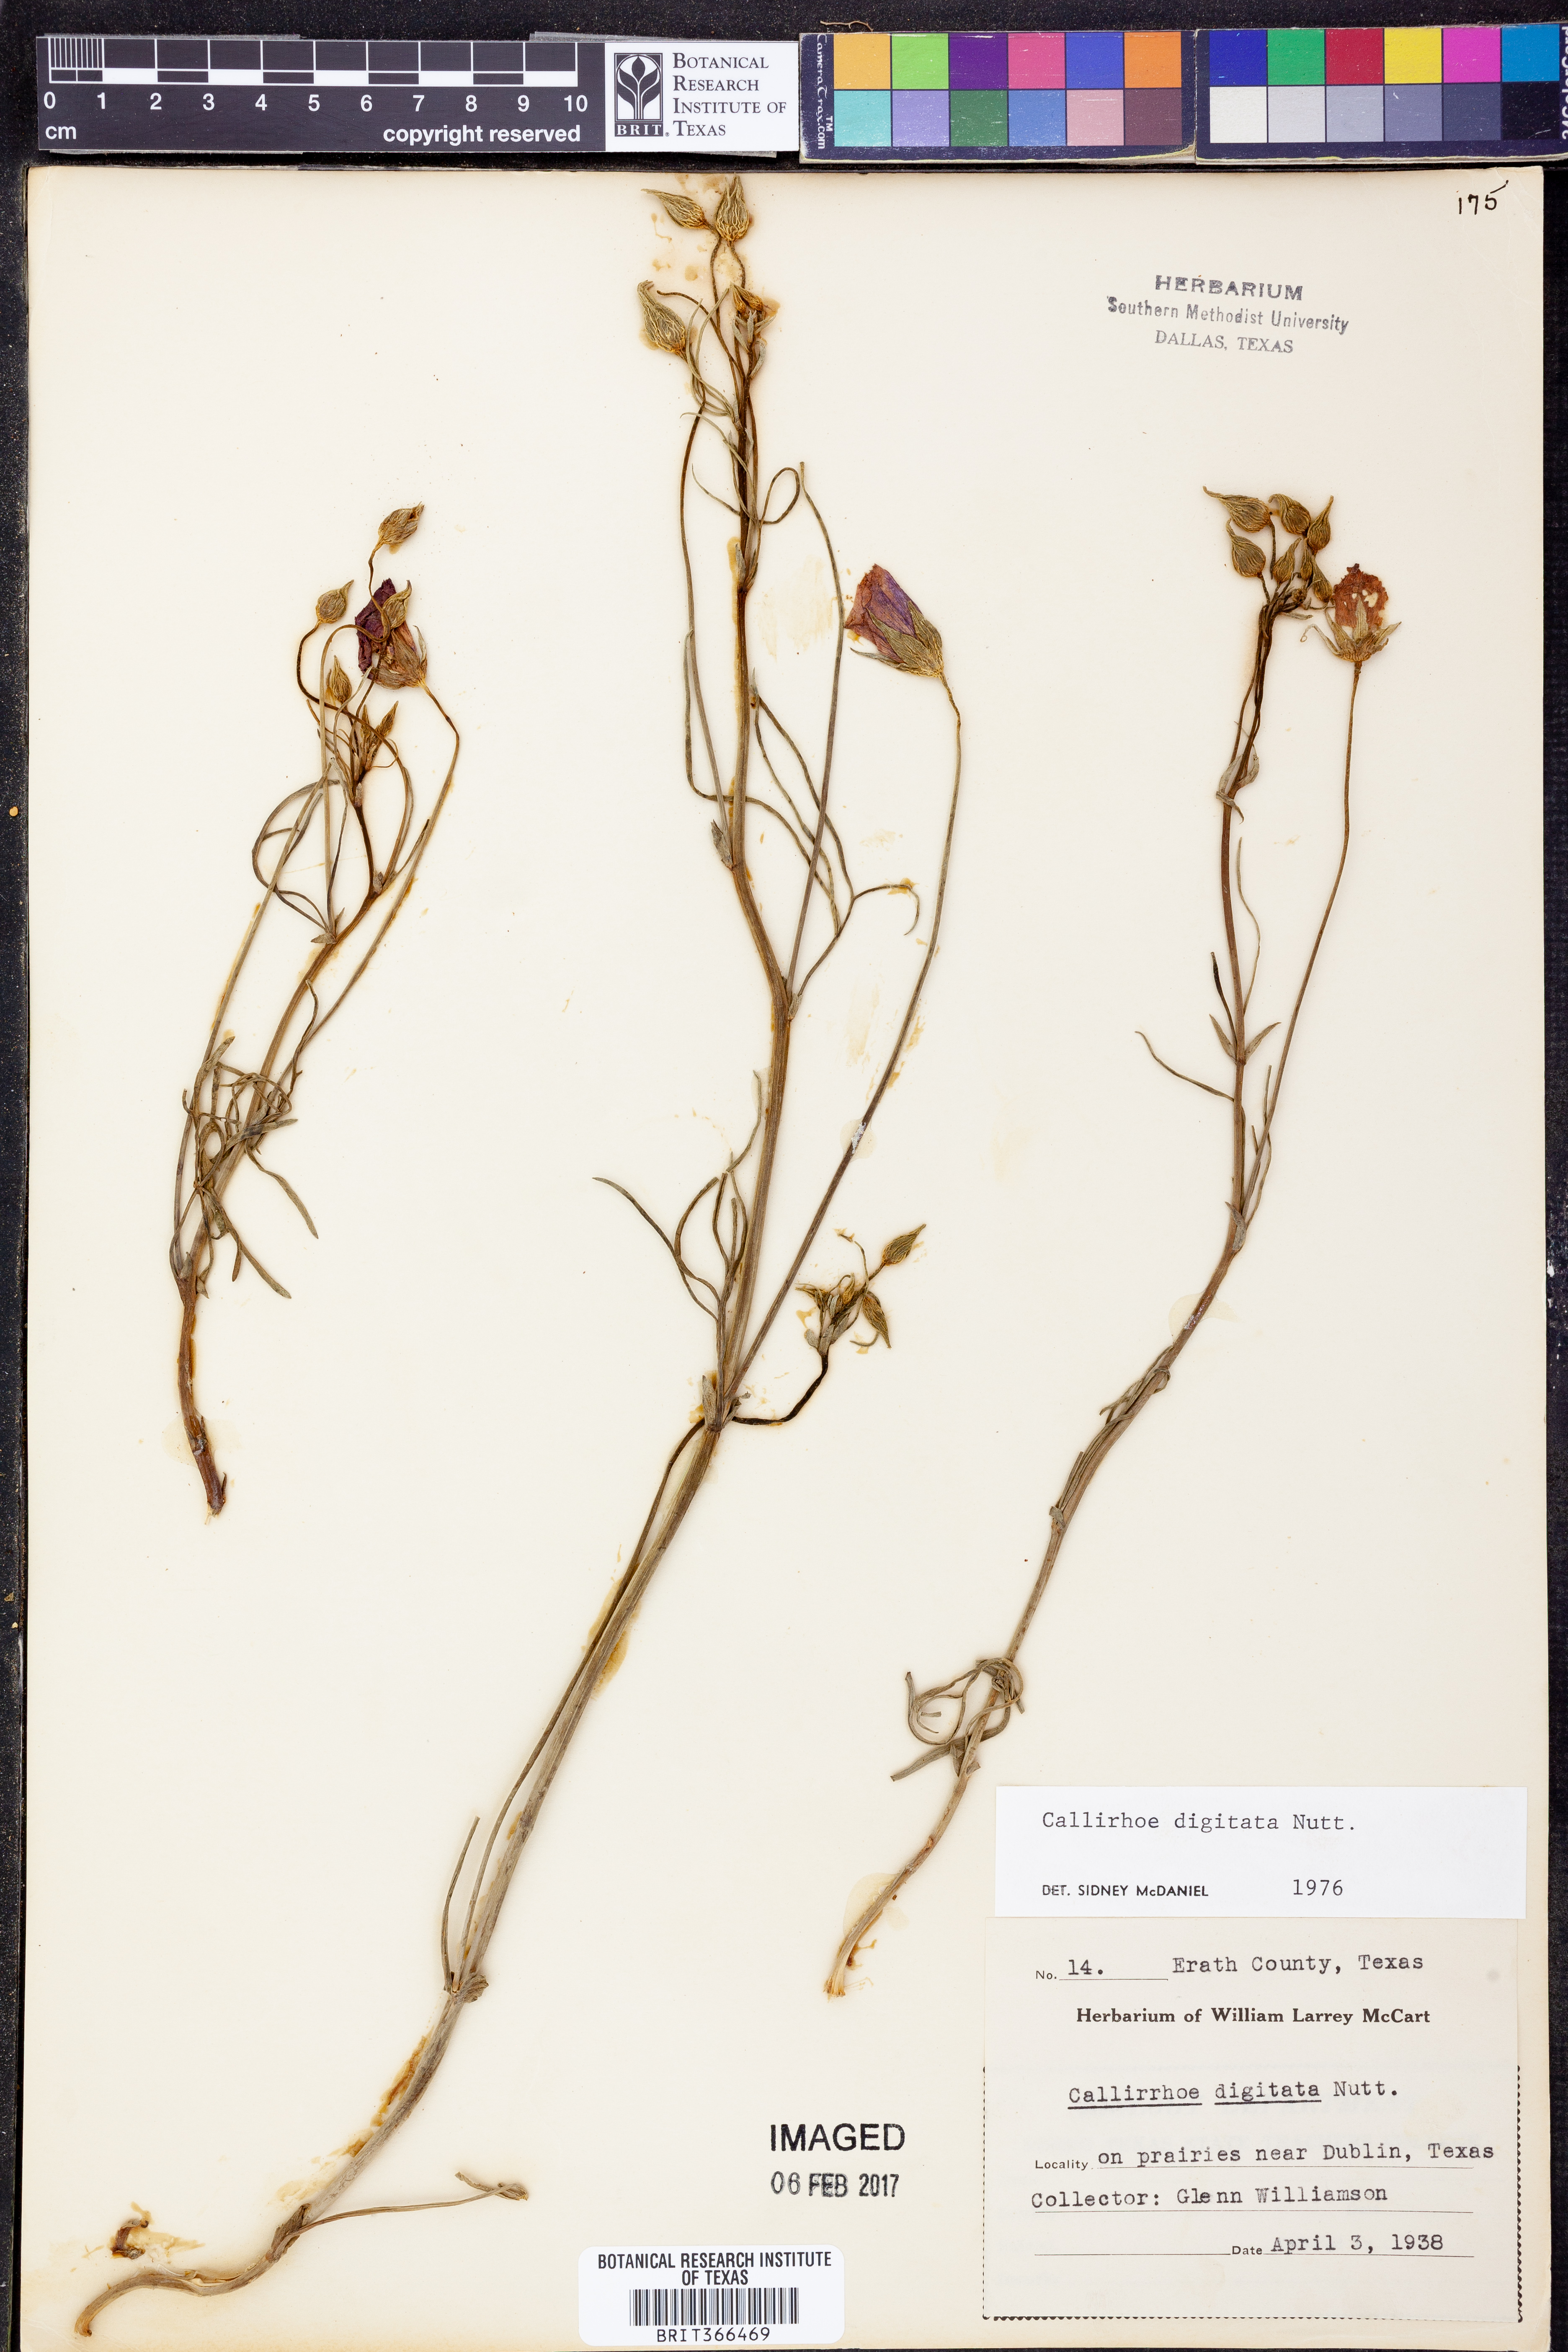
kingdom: Plantae
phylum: Tracheophyta
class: Magnoliopsida
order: Malvales
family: Malvaceae
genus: Callirhoe
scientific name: Callirhoe digitata
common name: Finger poppy-mallow
